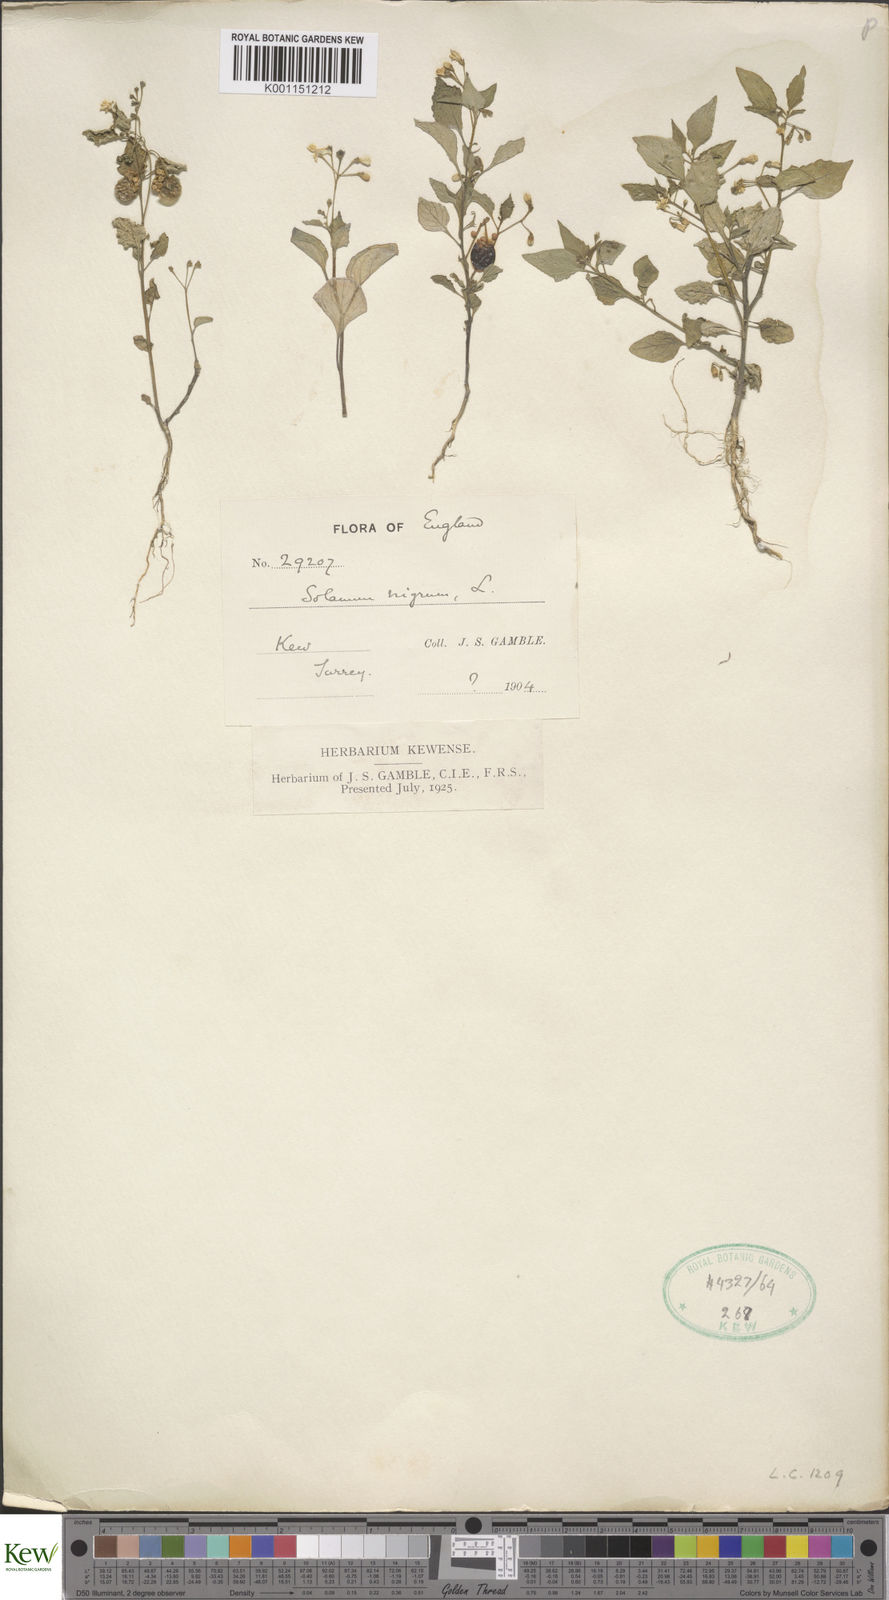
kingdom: Plantae
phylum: Tracheophyta
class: Magnoliopsida
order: Solanales
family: Solanaceae
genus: Solanum
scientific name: Solanum nigrum
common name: Black nightshade
